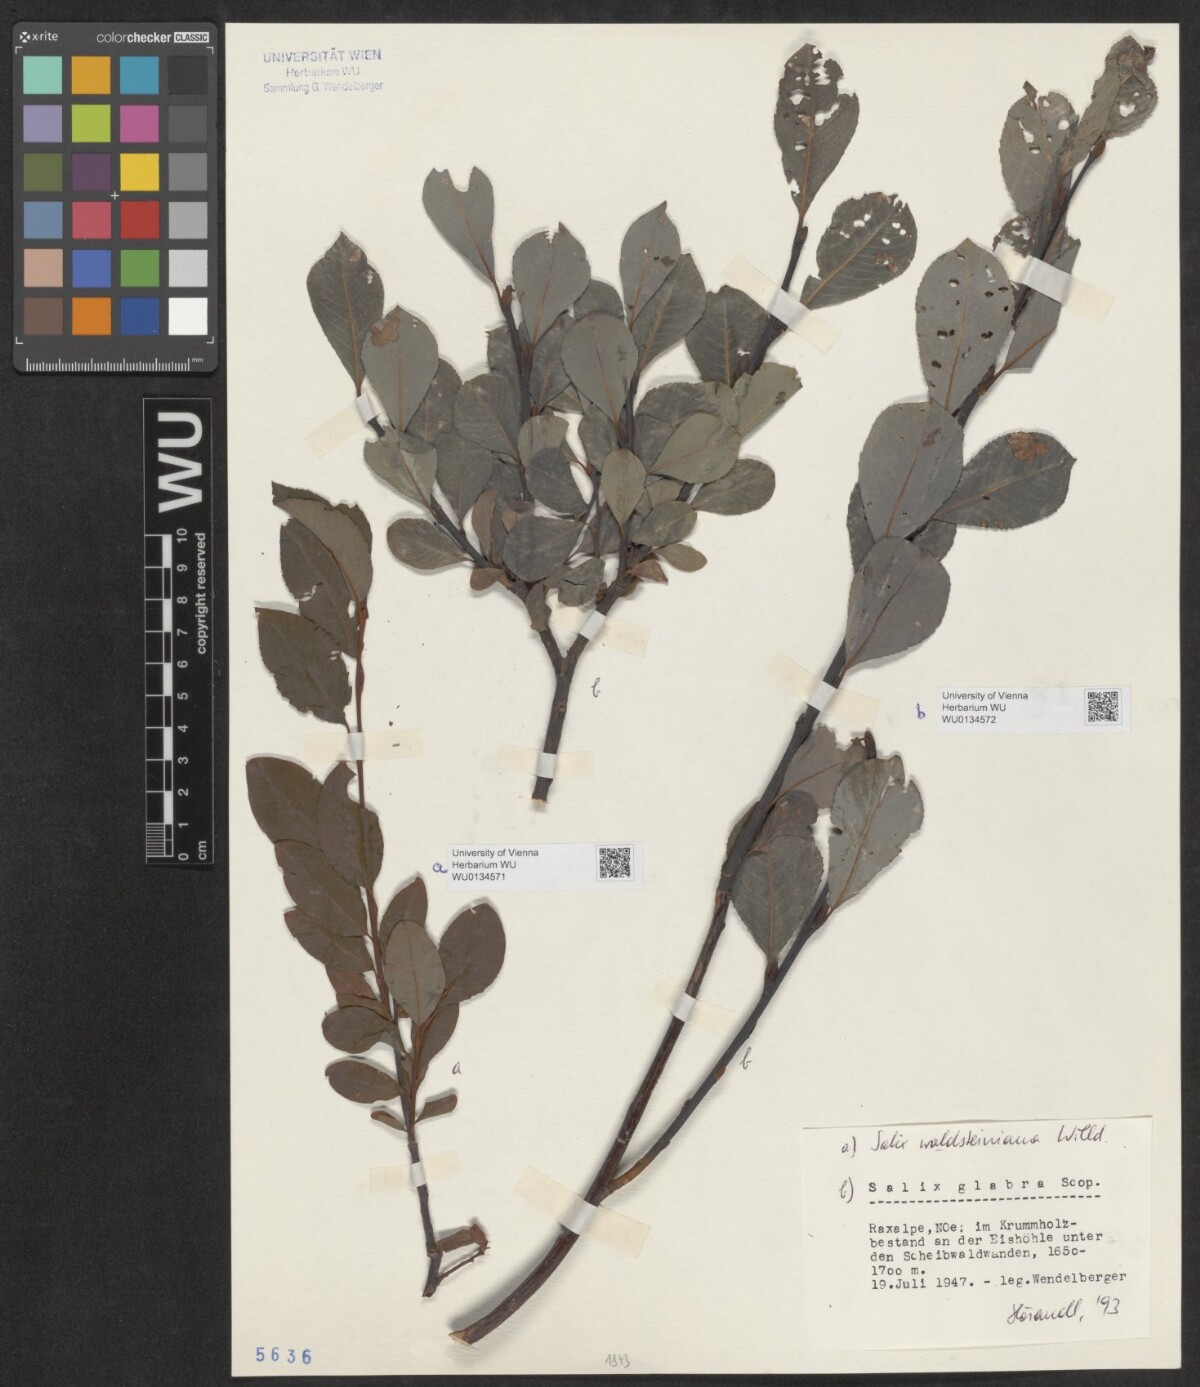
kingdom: Plantae
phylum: Tracheophyta
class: Magnoliopsida
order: Malpighiales
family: Salicaceae
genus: Salix
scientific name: Salix glabra
